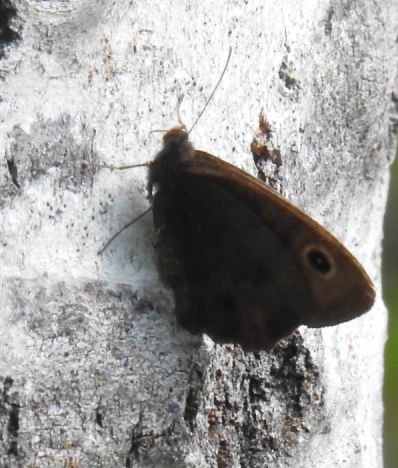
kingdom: Animalia
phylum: Arthropoda
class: Insecta
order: Lepidoptera
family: Nymphalidae
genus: Cercyonis
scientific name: Cercyonis pegala
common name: Common Wood-Nymph
